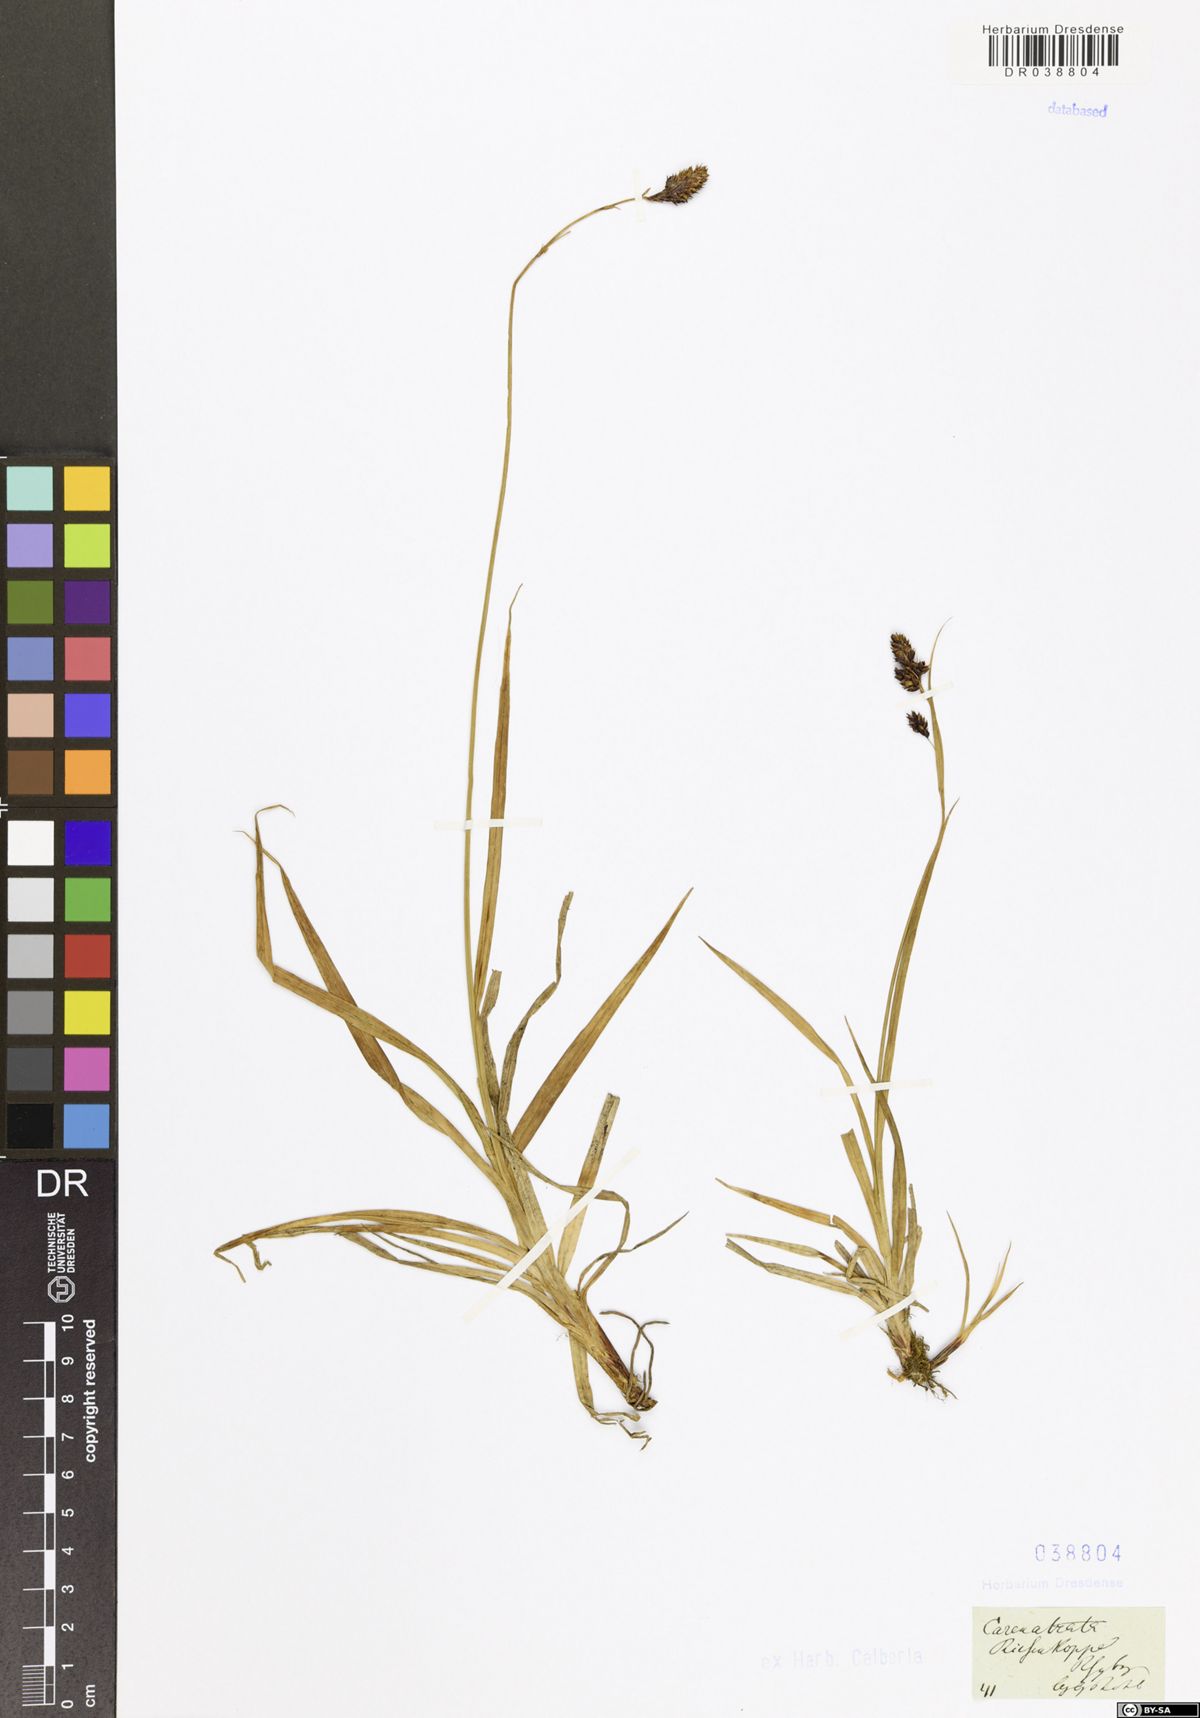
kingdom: Plantae
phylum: Tracheophyta
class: Liliopsida
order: Poales
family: Cyperaceae
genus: Carex
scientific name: Carex atrata
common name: Black alpine sedge
